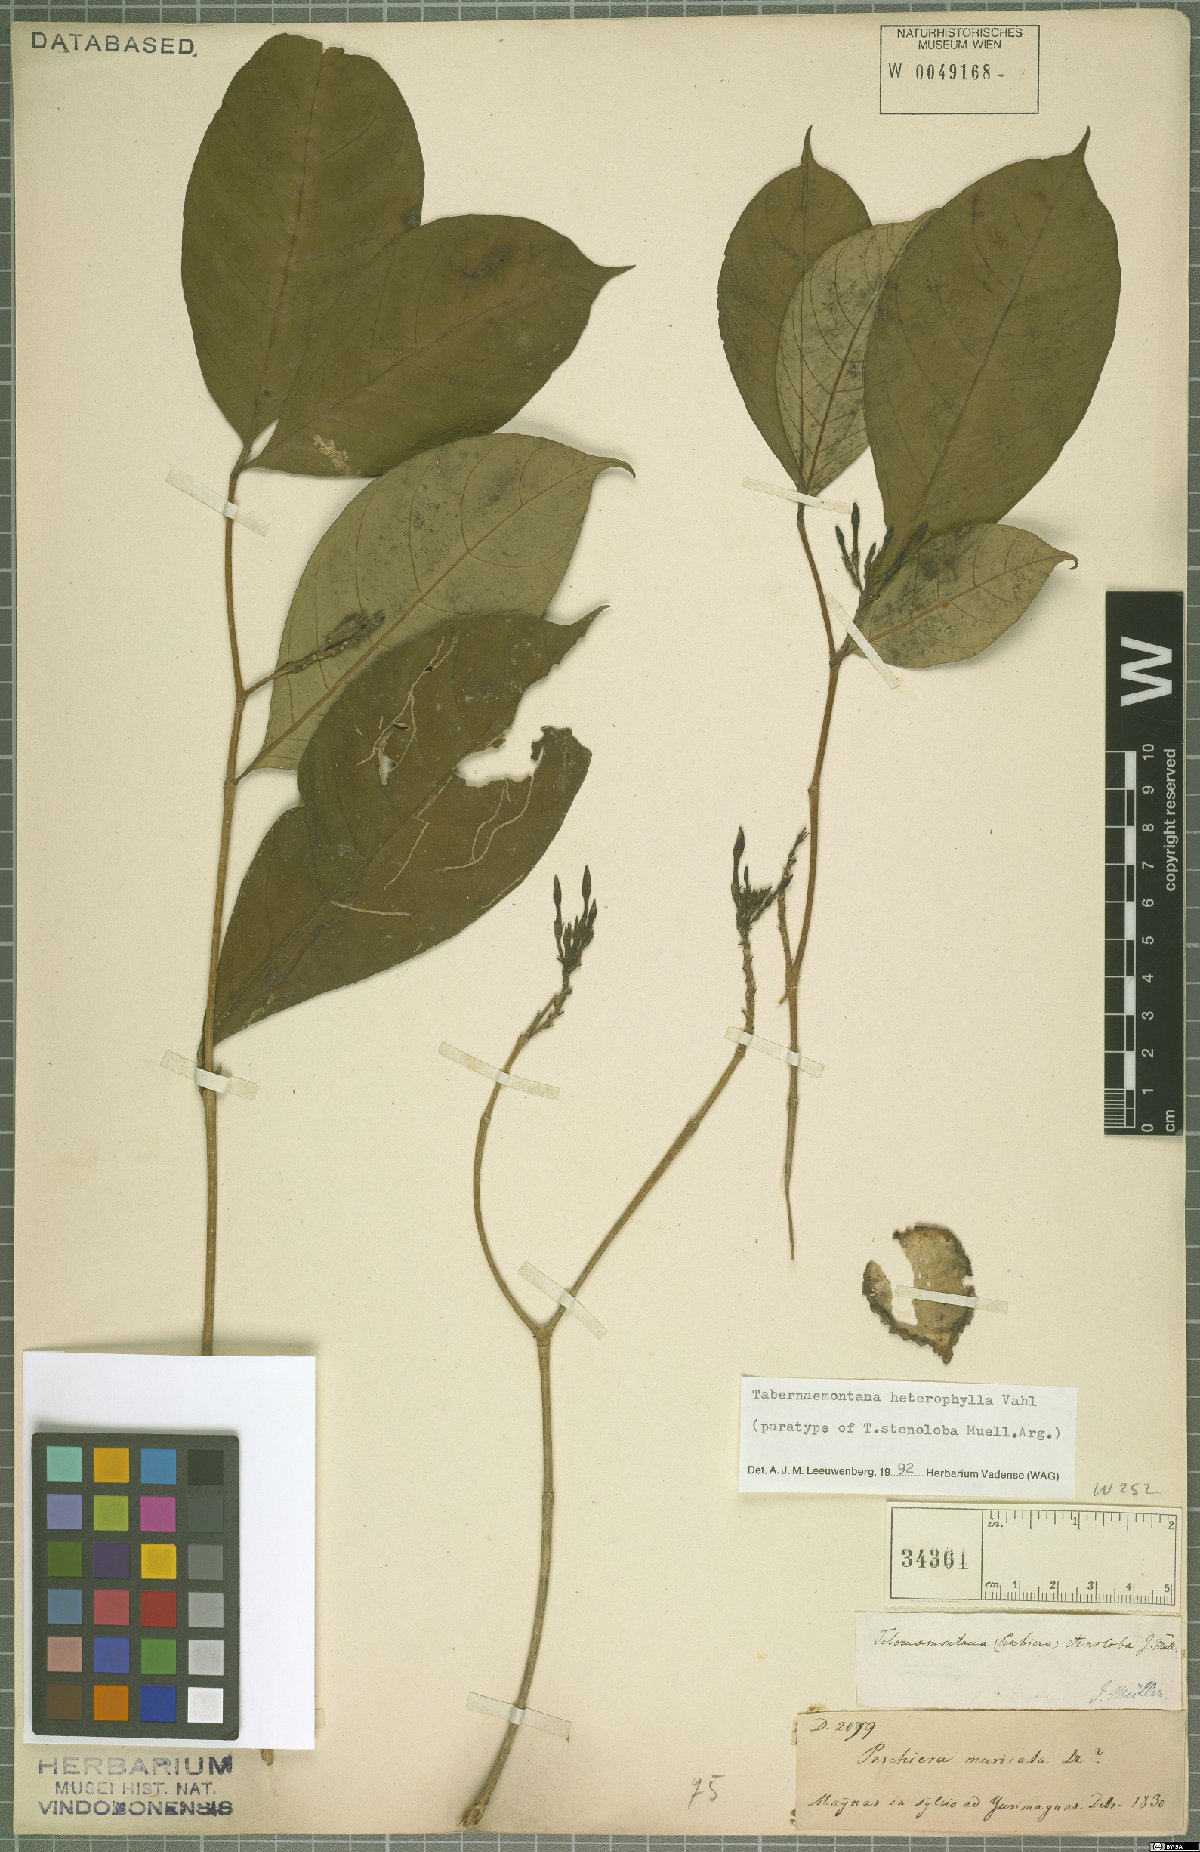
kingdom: Plantae
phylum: Tracheophyta
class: Magnoliopsida
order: Gentianales
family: Apocynaceae
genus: Tabernaemontana
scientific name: Tabernaemontana heterophylla
